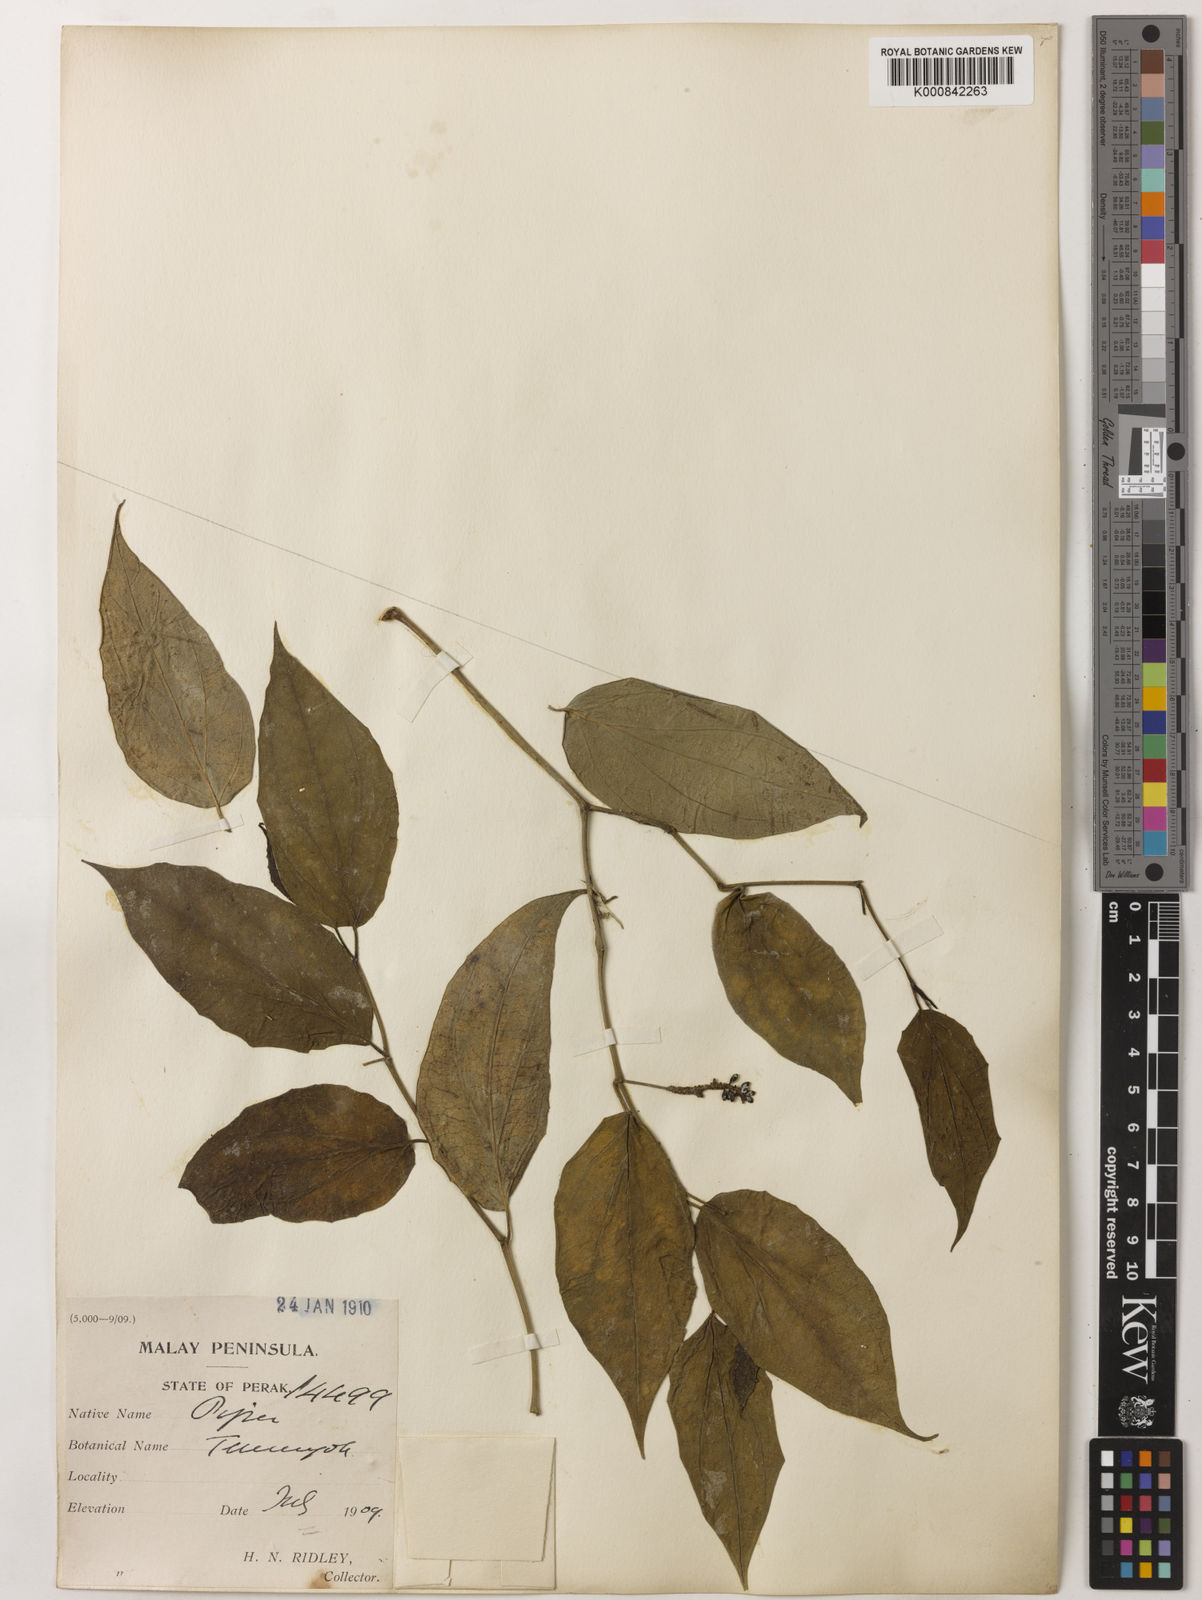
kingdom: Plantae
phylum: Tracheophyta
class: Magnoliopsida
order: Piperales
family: Piperaceae
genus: Piper
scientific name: Piper lanatum
